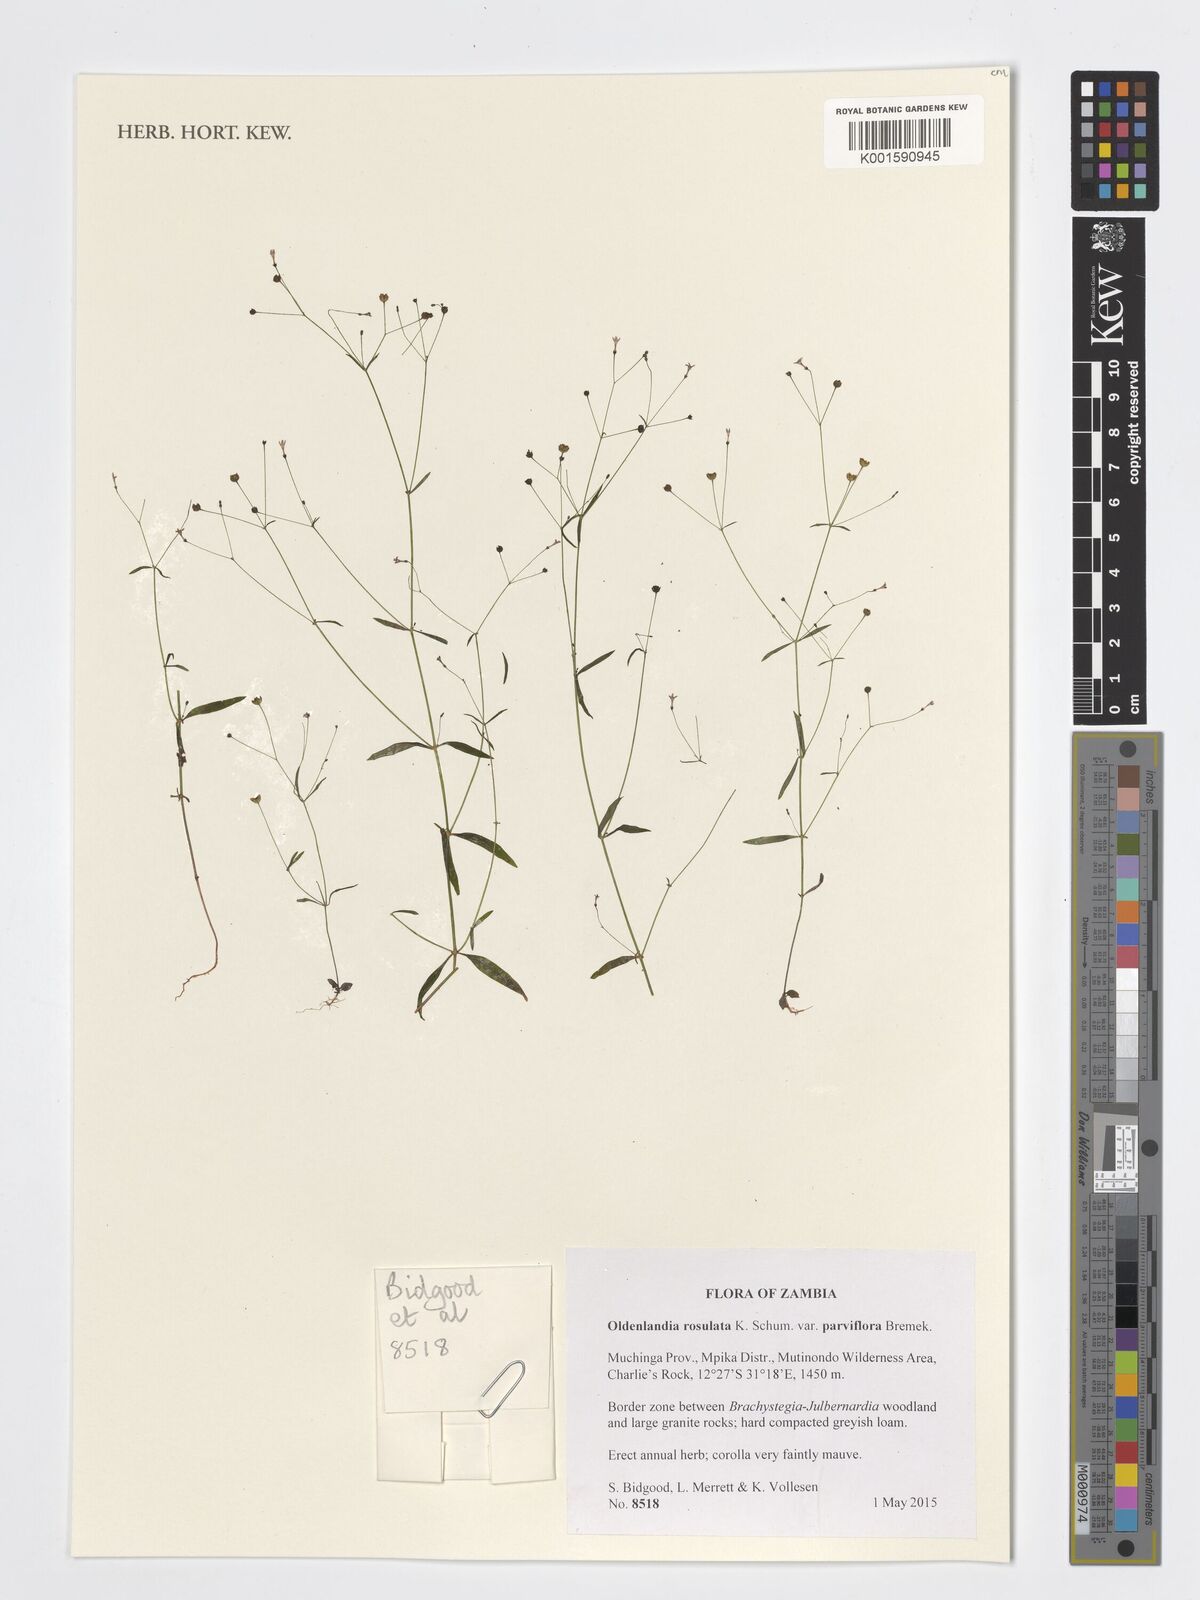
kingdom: Plantae
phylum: Tracheophyta
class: Magnoliopsida
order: Gentianales
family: Rubiaceae
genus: Oldenlandia
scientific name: Oldenlandia rosulata
